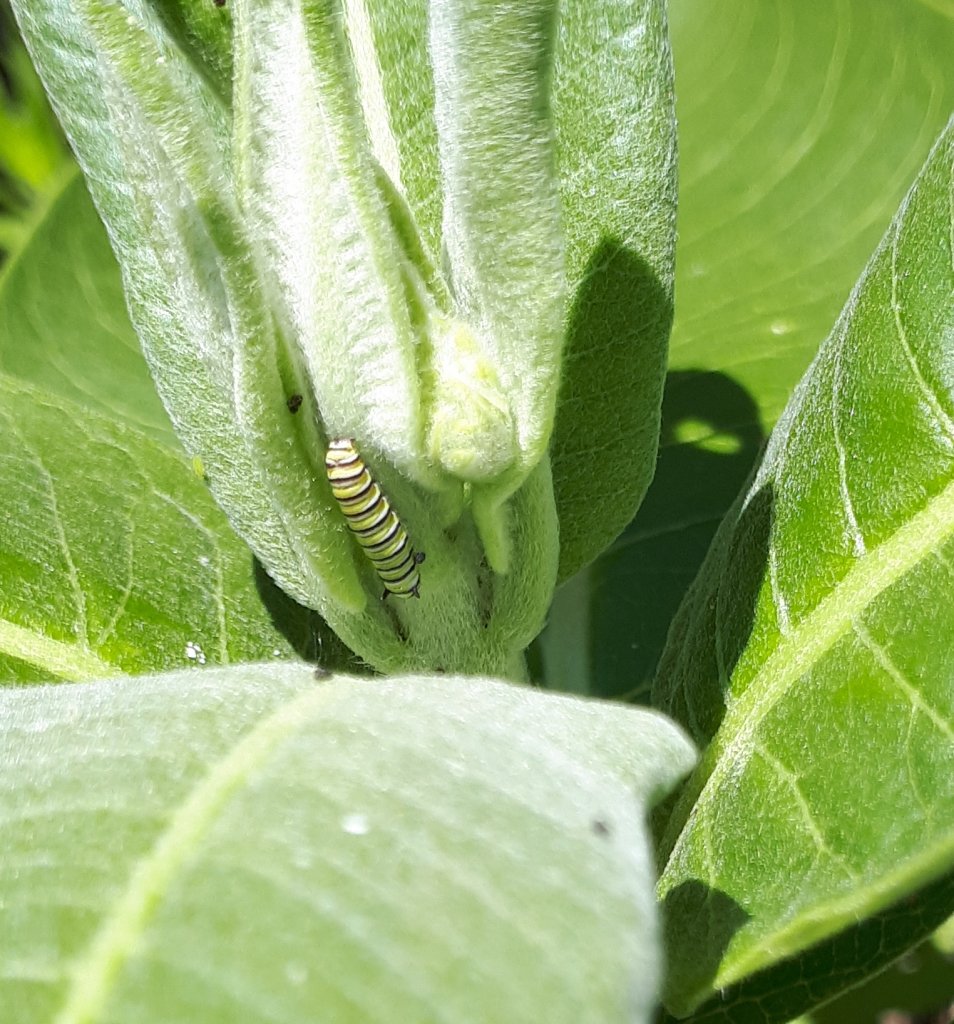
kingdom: Animalia
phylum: Arthropoda
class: Insecta
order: Lepidoptera
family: Nymphalidae
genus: Danaus
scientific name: Danaus plexippus
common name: Monarch
